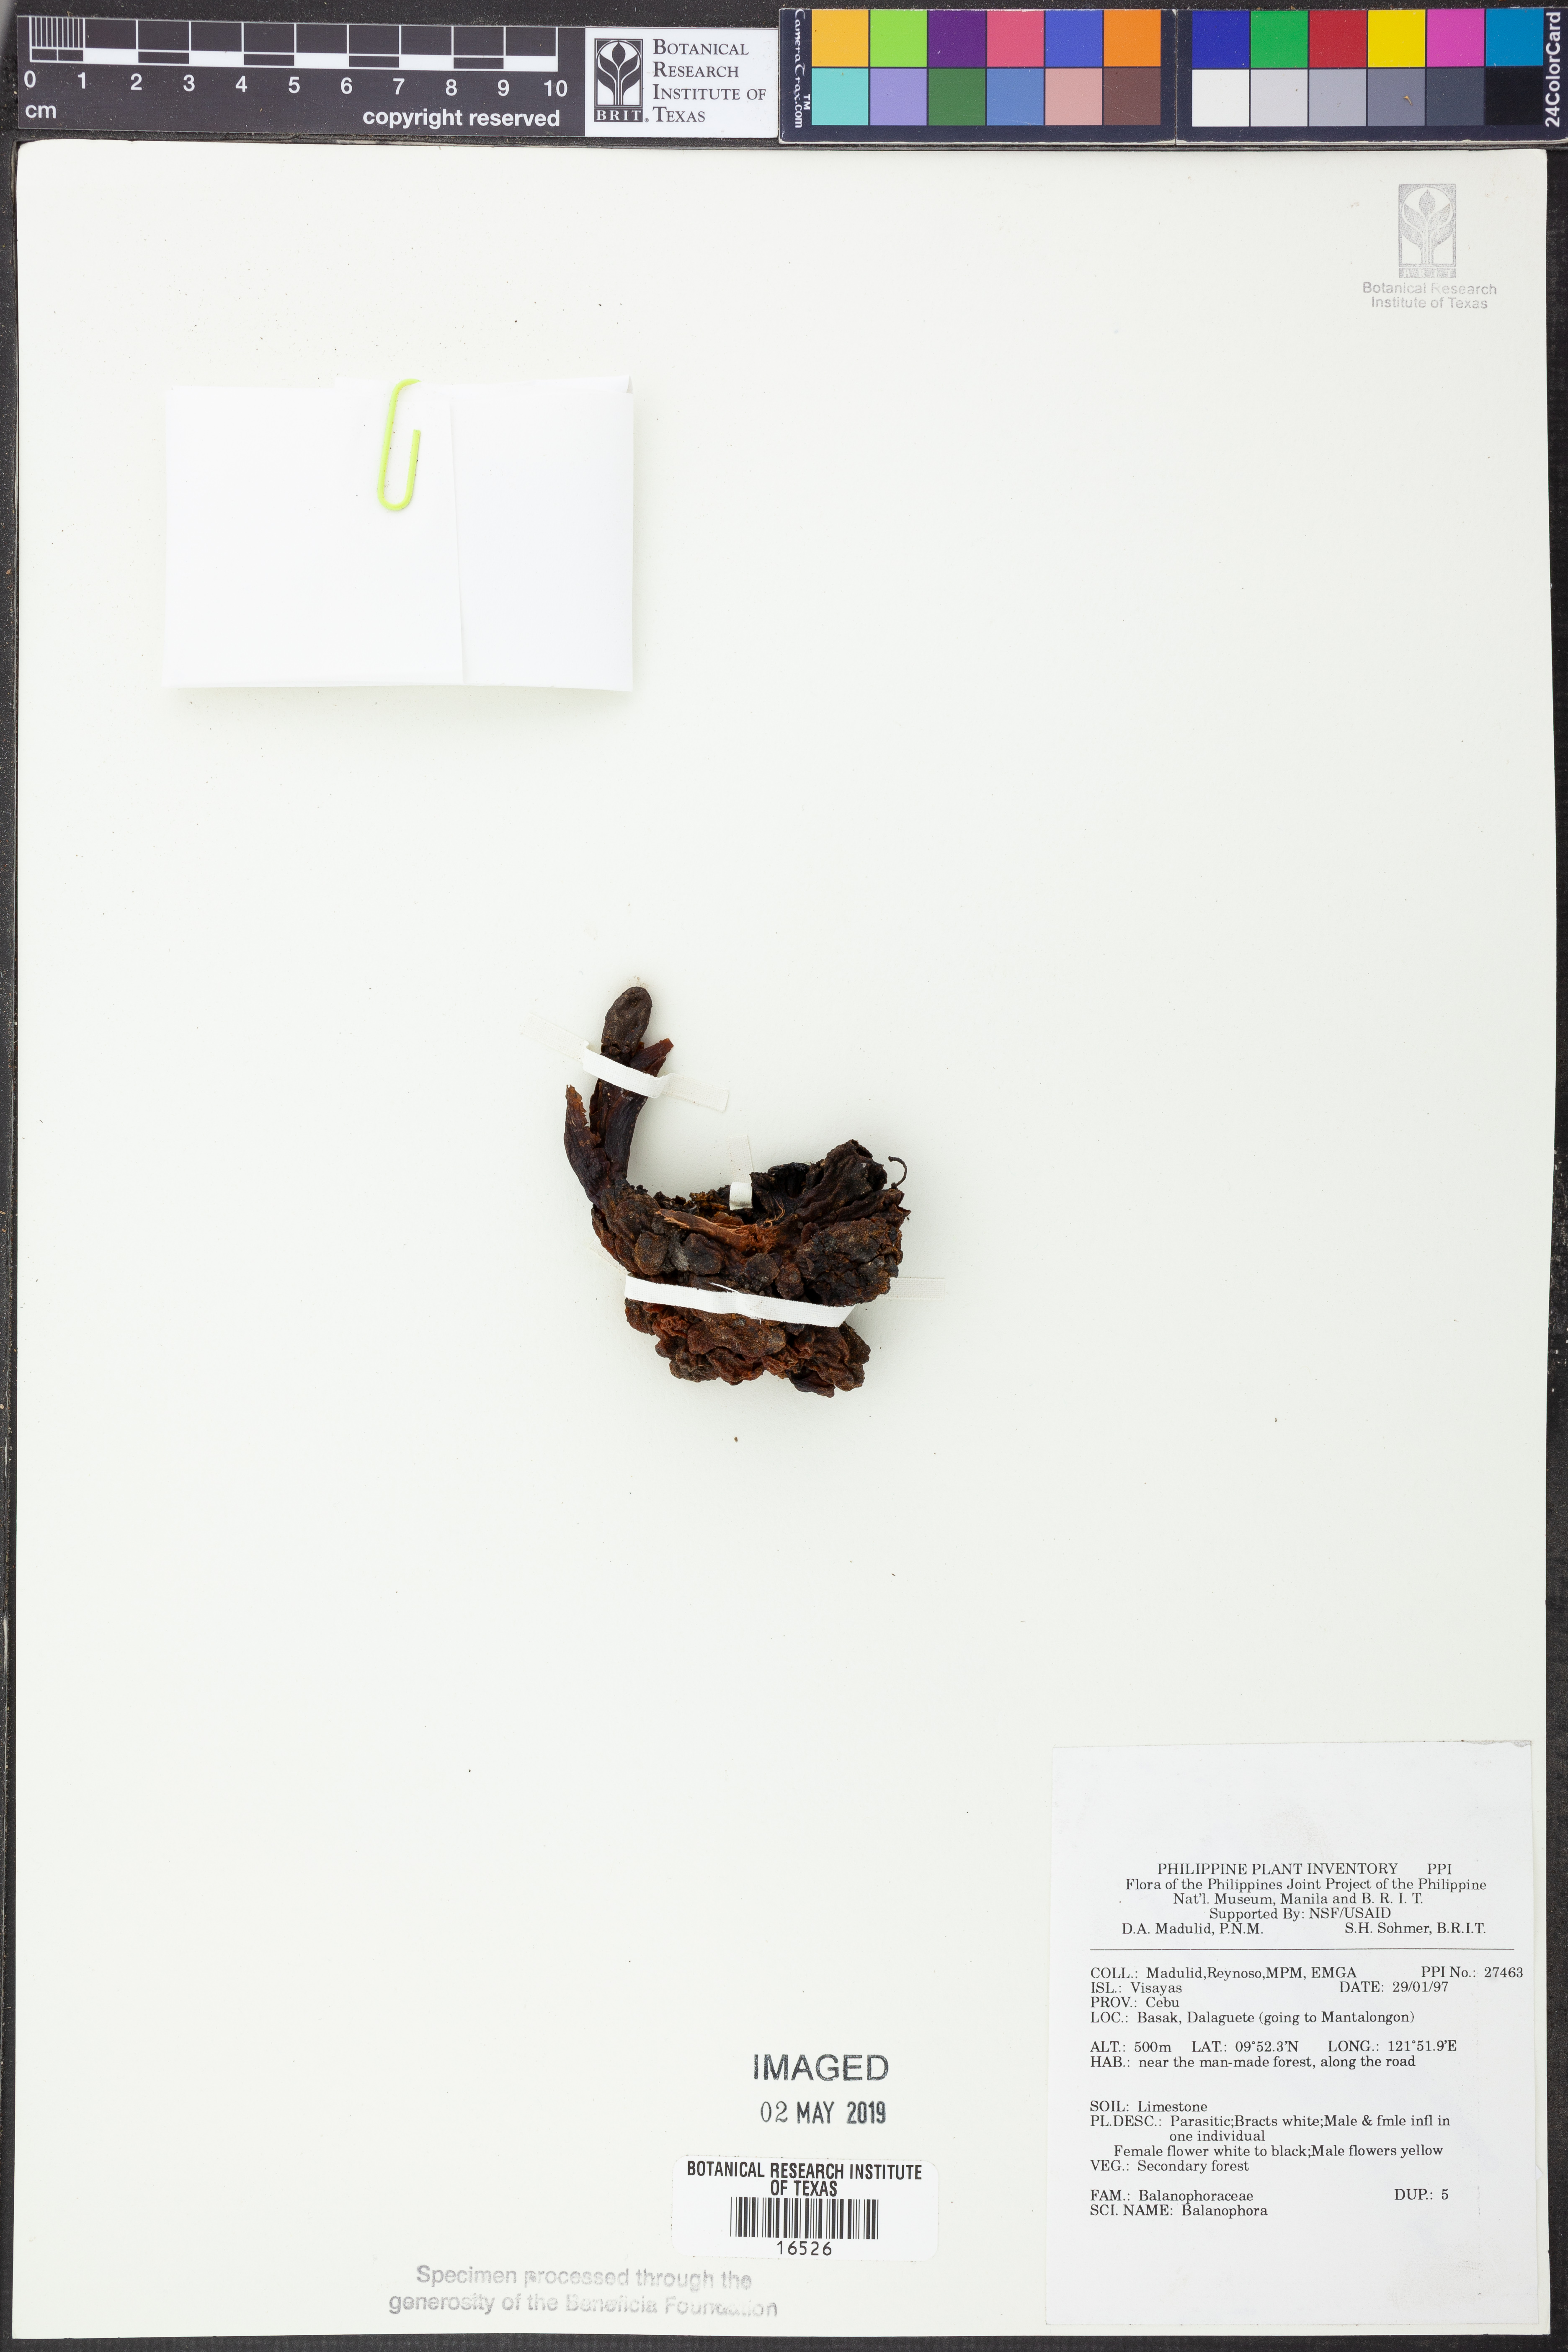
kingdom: Plantae
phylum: Tracheophyta
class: Magnoliopsida
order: Santalales
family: Balanophoraceae
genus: Balanophora
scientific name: Balanophora
